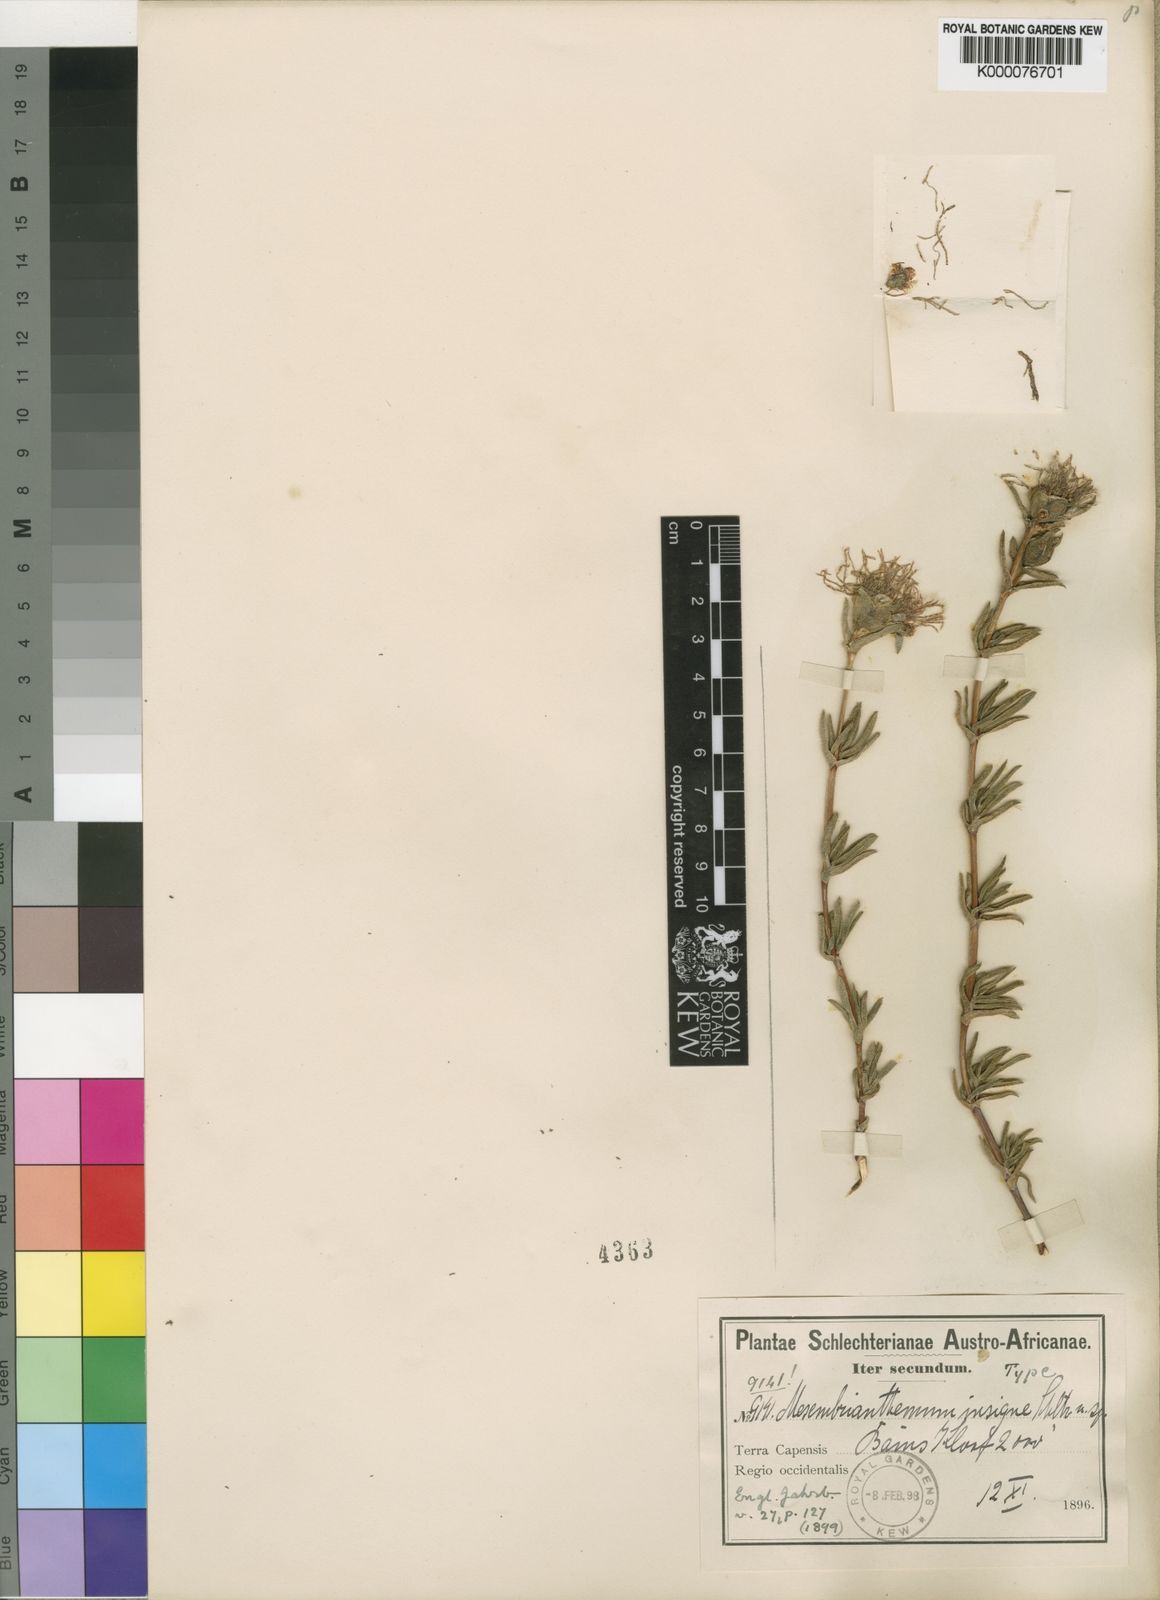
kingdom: Plantae
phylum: Tracheophyta
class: Magnoliopsida
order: Caryophyllales
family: Aizoaceae
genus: Erepsia
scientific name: Erepsia insignis
